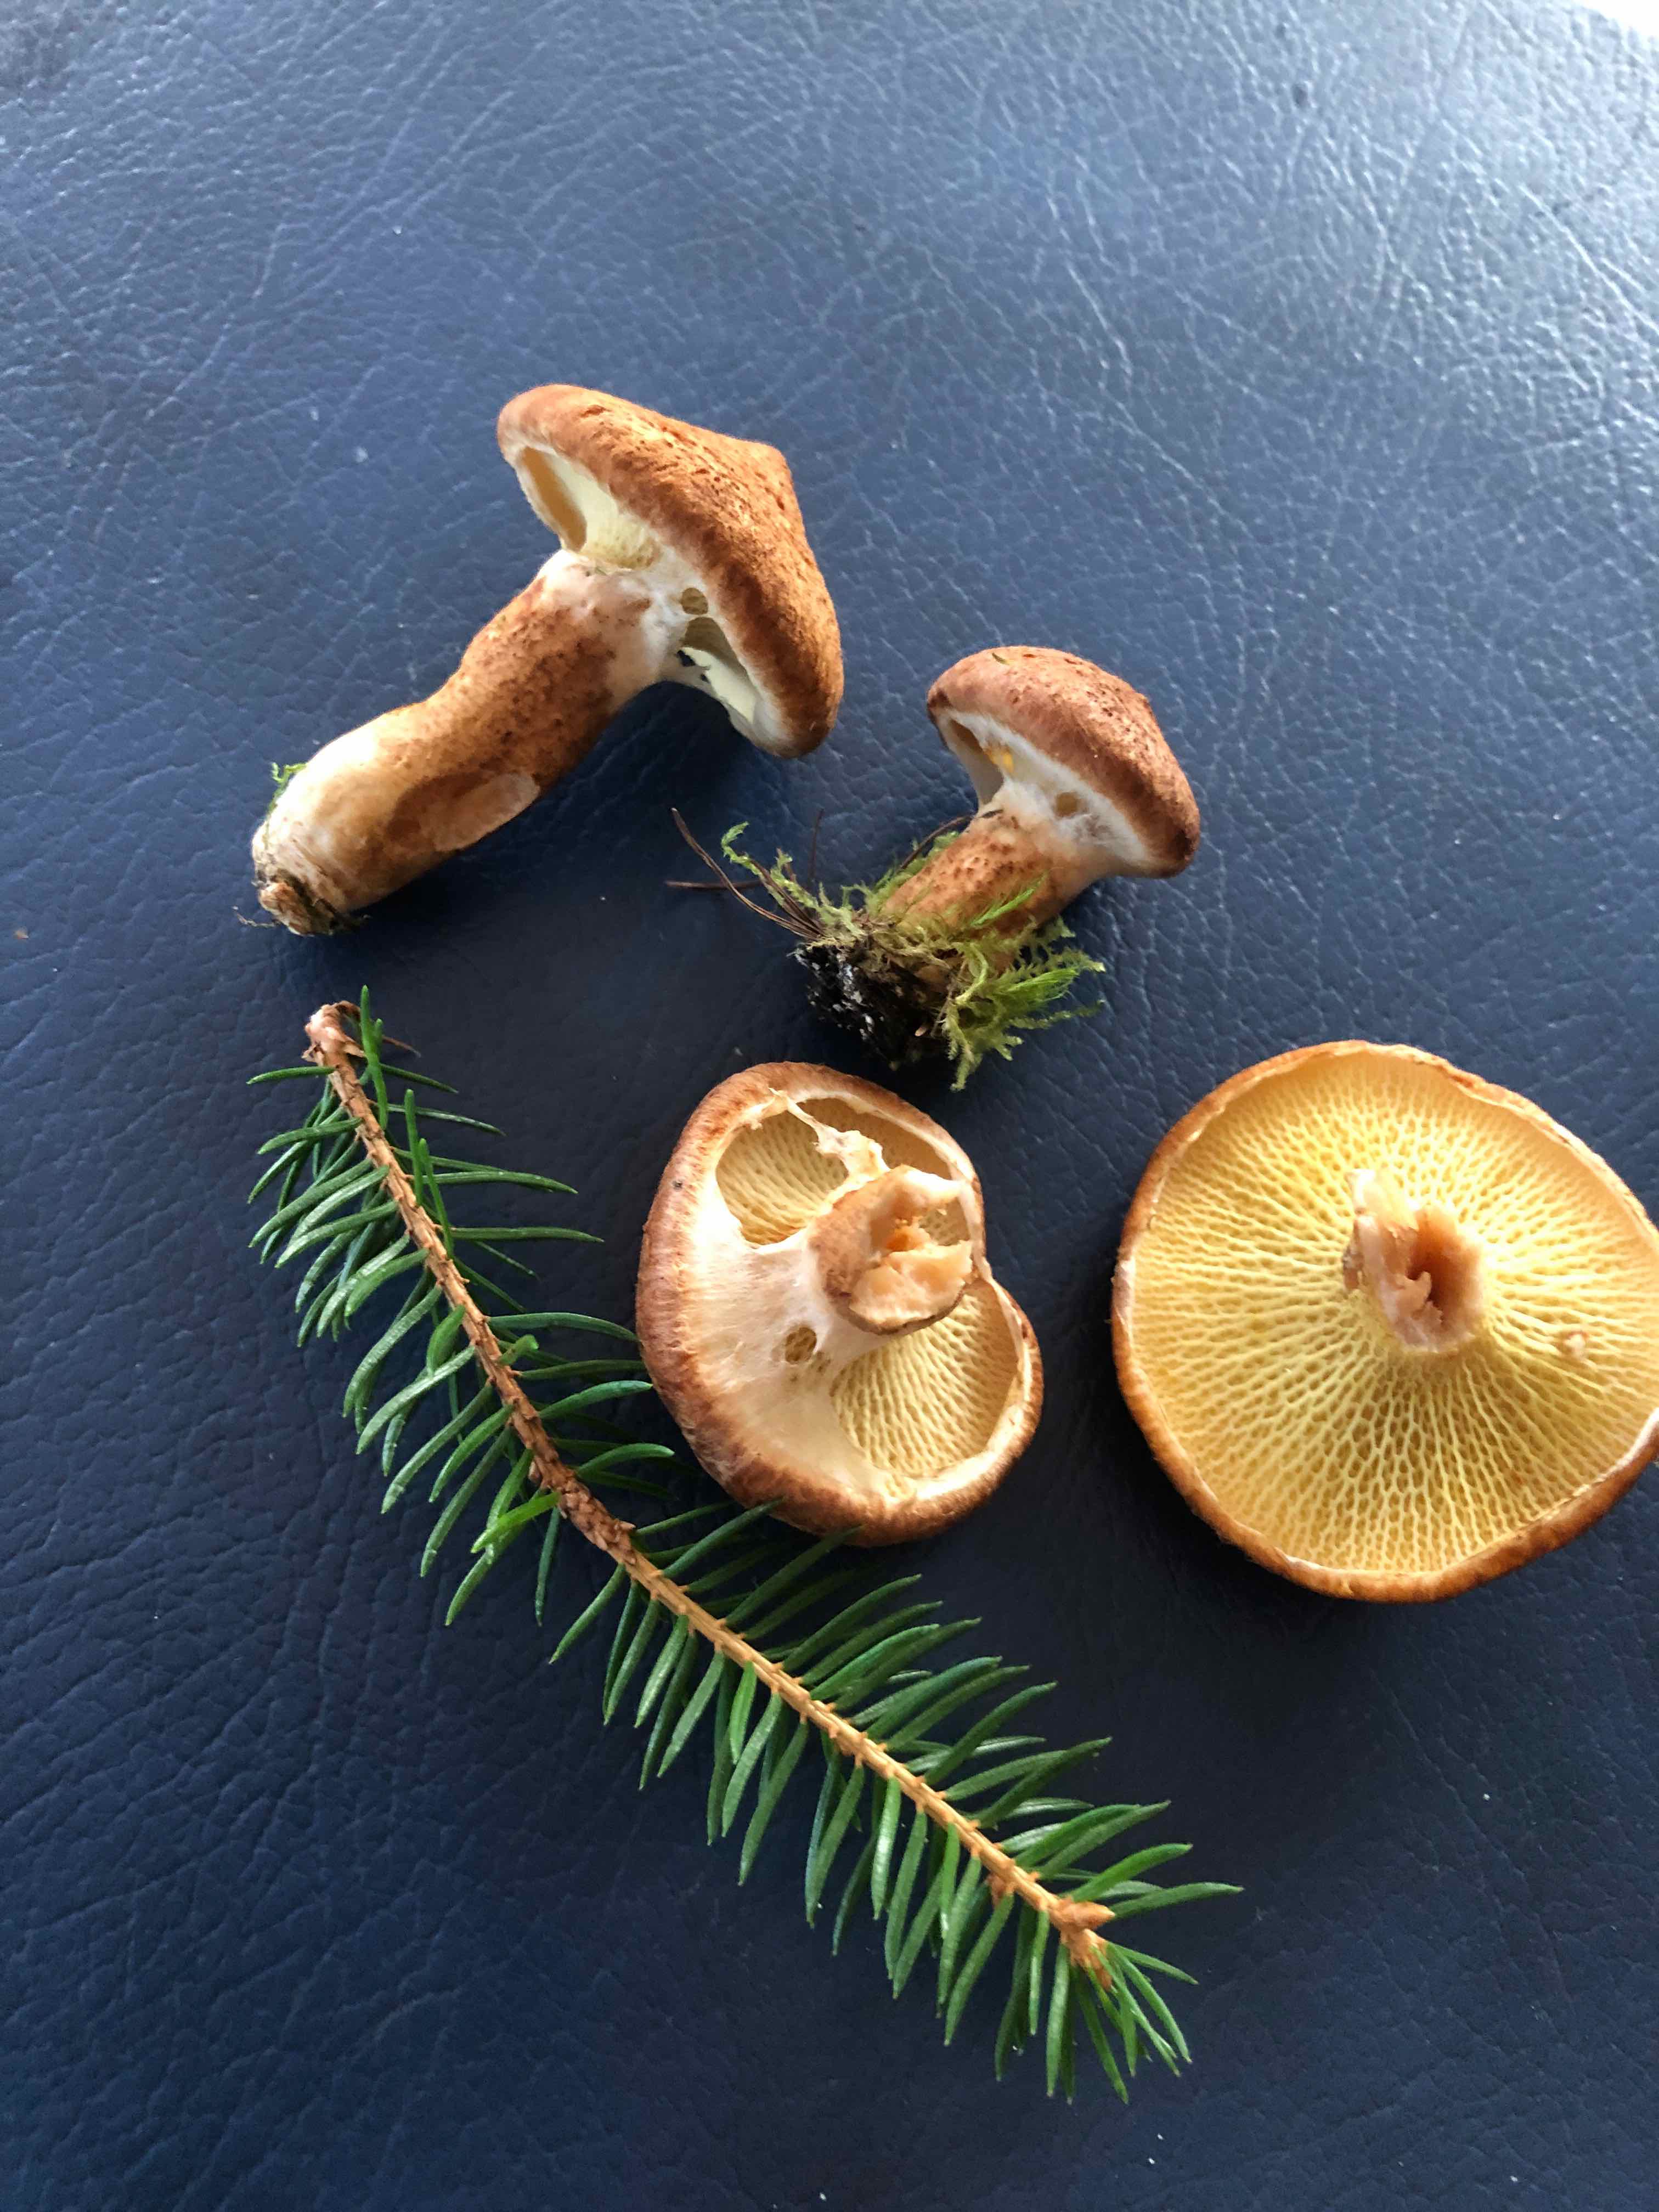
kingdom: Fungi
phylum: Basidiomycota
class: Agaricomycetes
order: Boletales
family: Suillaceae
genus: Suillus
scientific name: Suillus cavipes
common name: hulstokket slimrørhat
